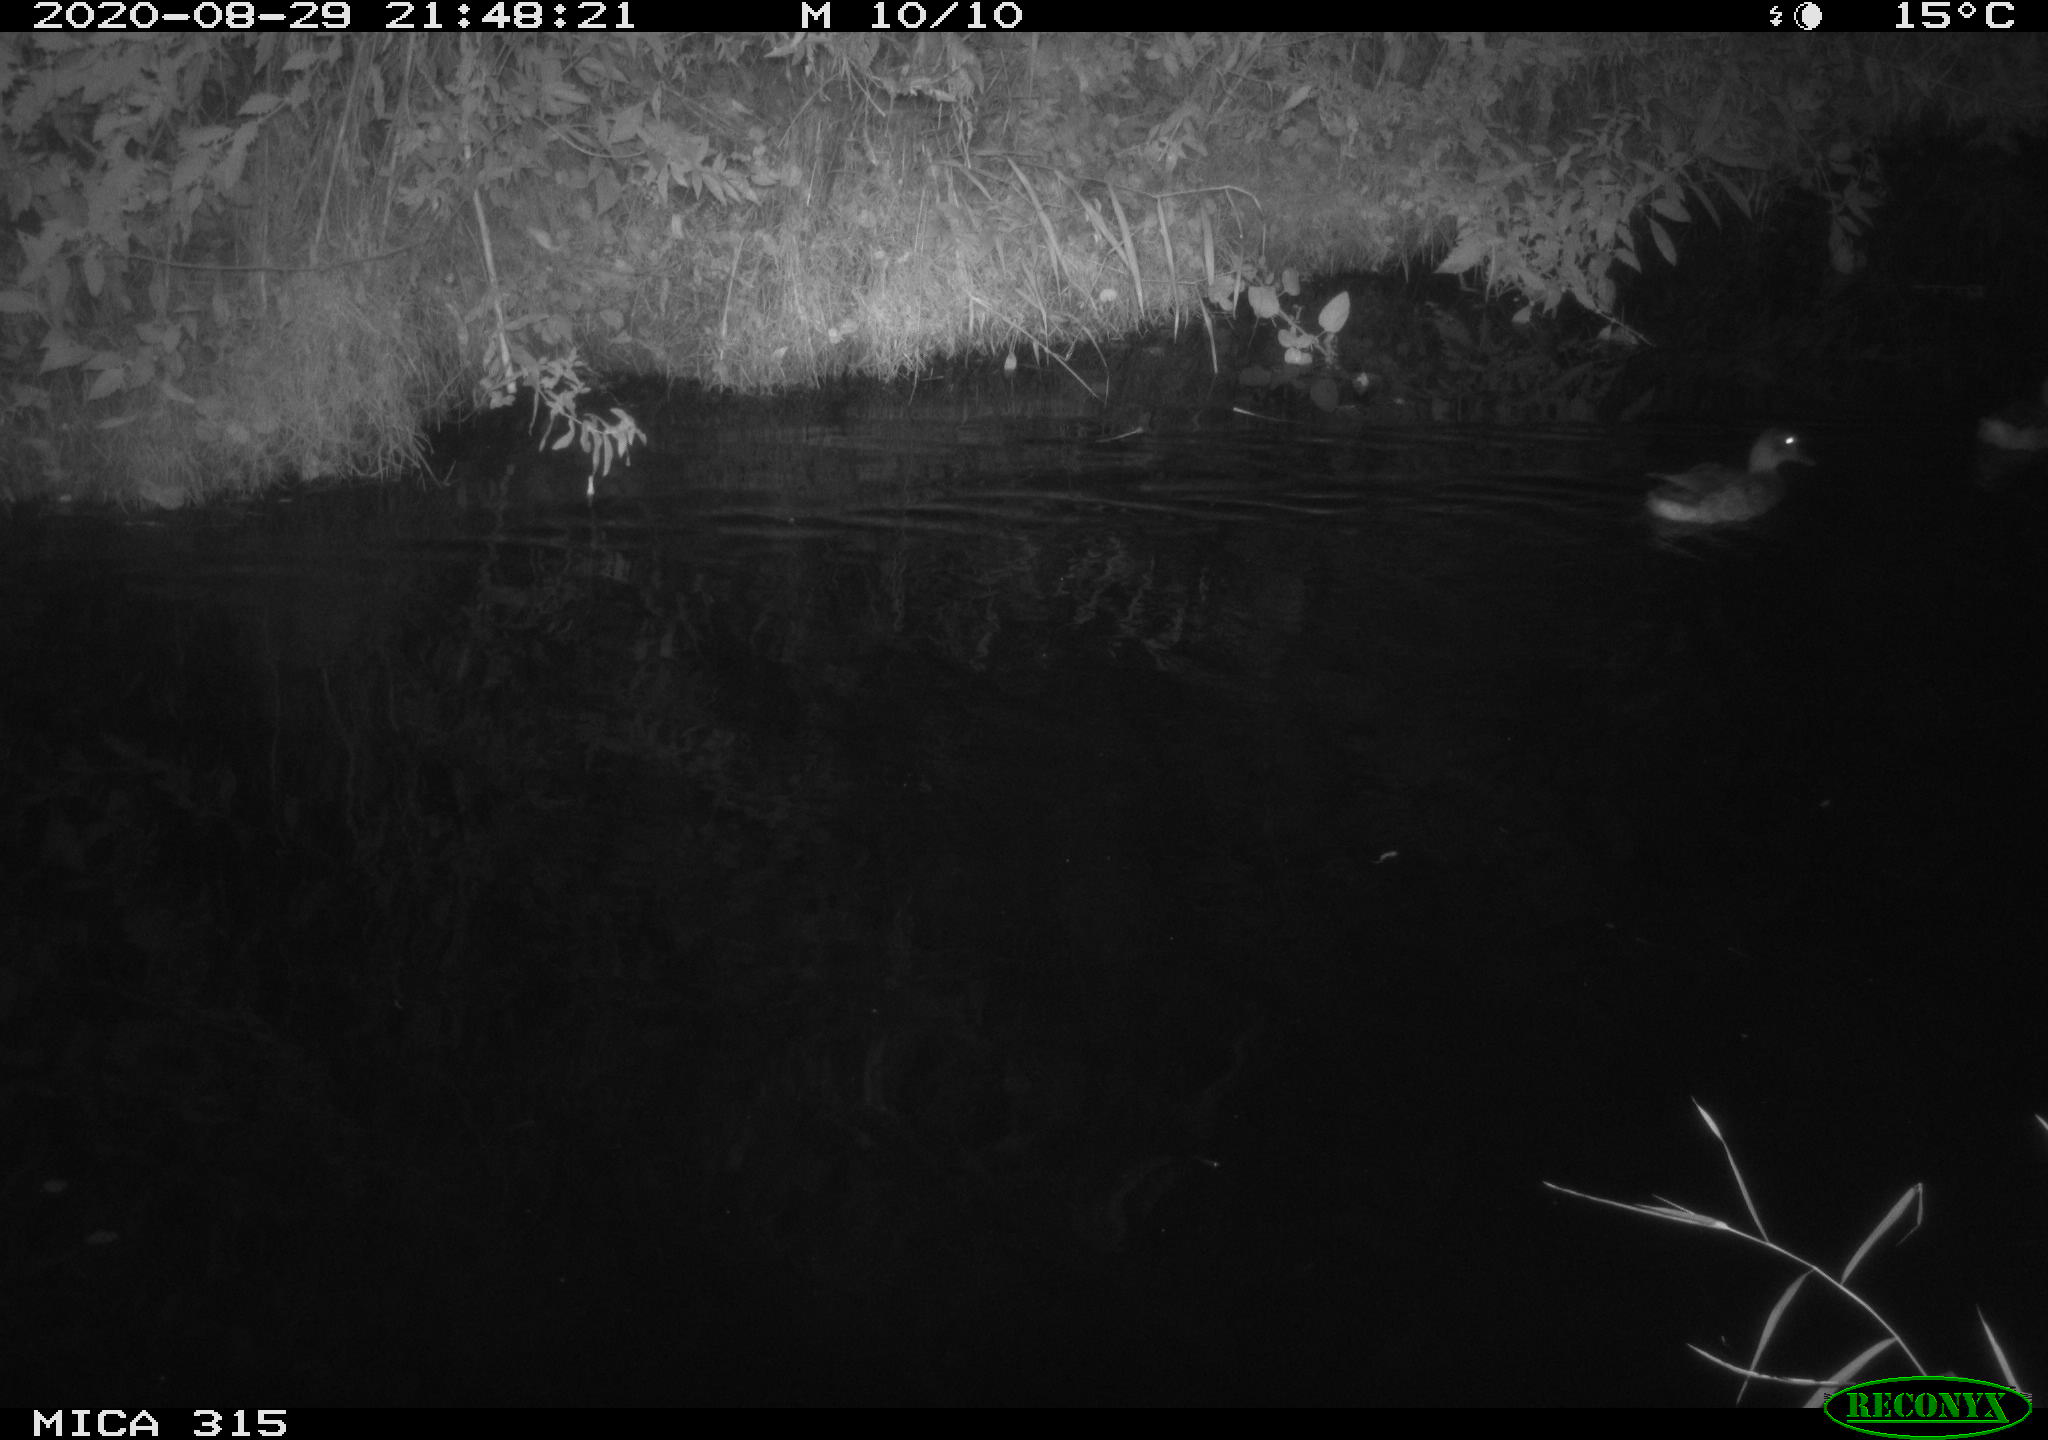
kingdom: Animalia
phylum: Chordata
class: Aves
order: Anseriformes
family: Anatidae
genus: Anas
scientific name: Anas platyrhynchos
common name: Mallard
